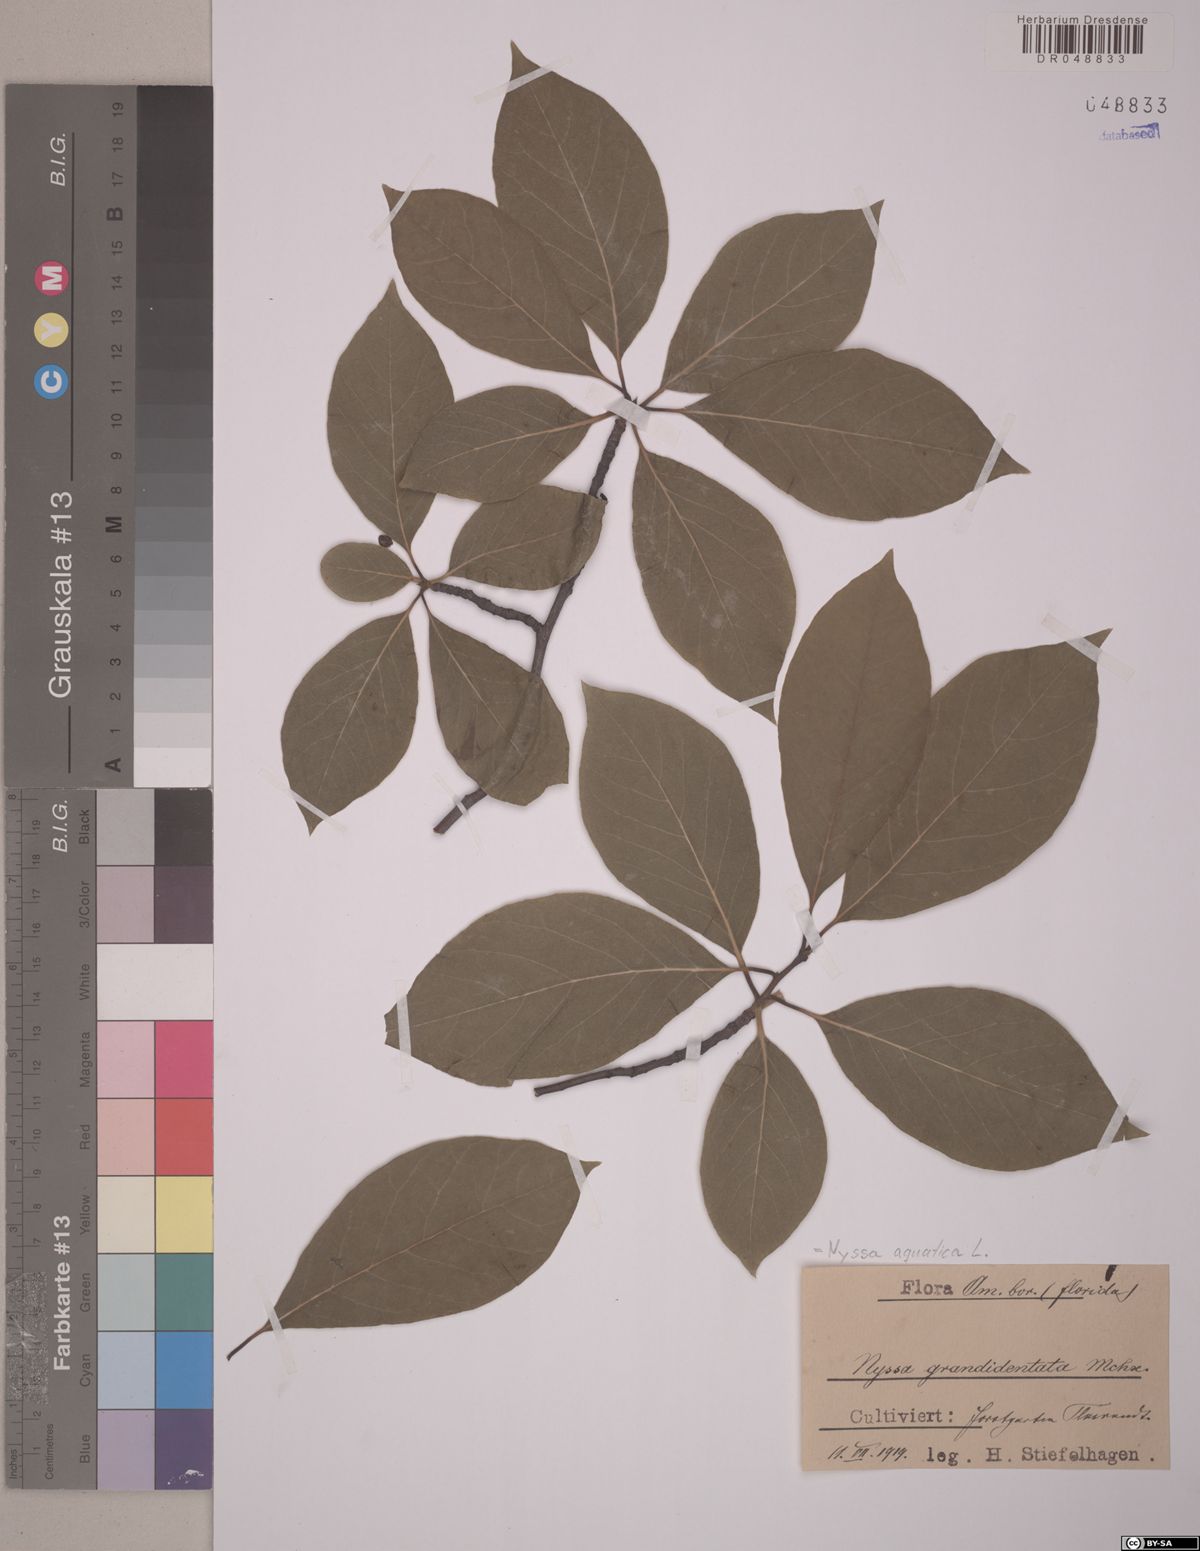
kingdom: Plantae
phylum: Tracheophyta
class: Magnoliopsida
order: Cornales
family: Nyssaceae
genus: Nyssa
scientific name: Nyssa aquatica
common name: Swamp tupelo
